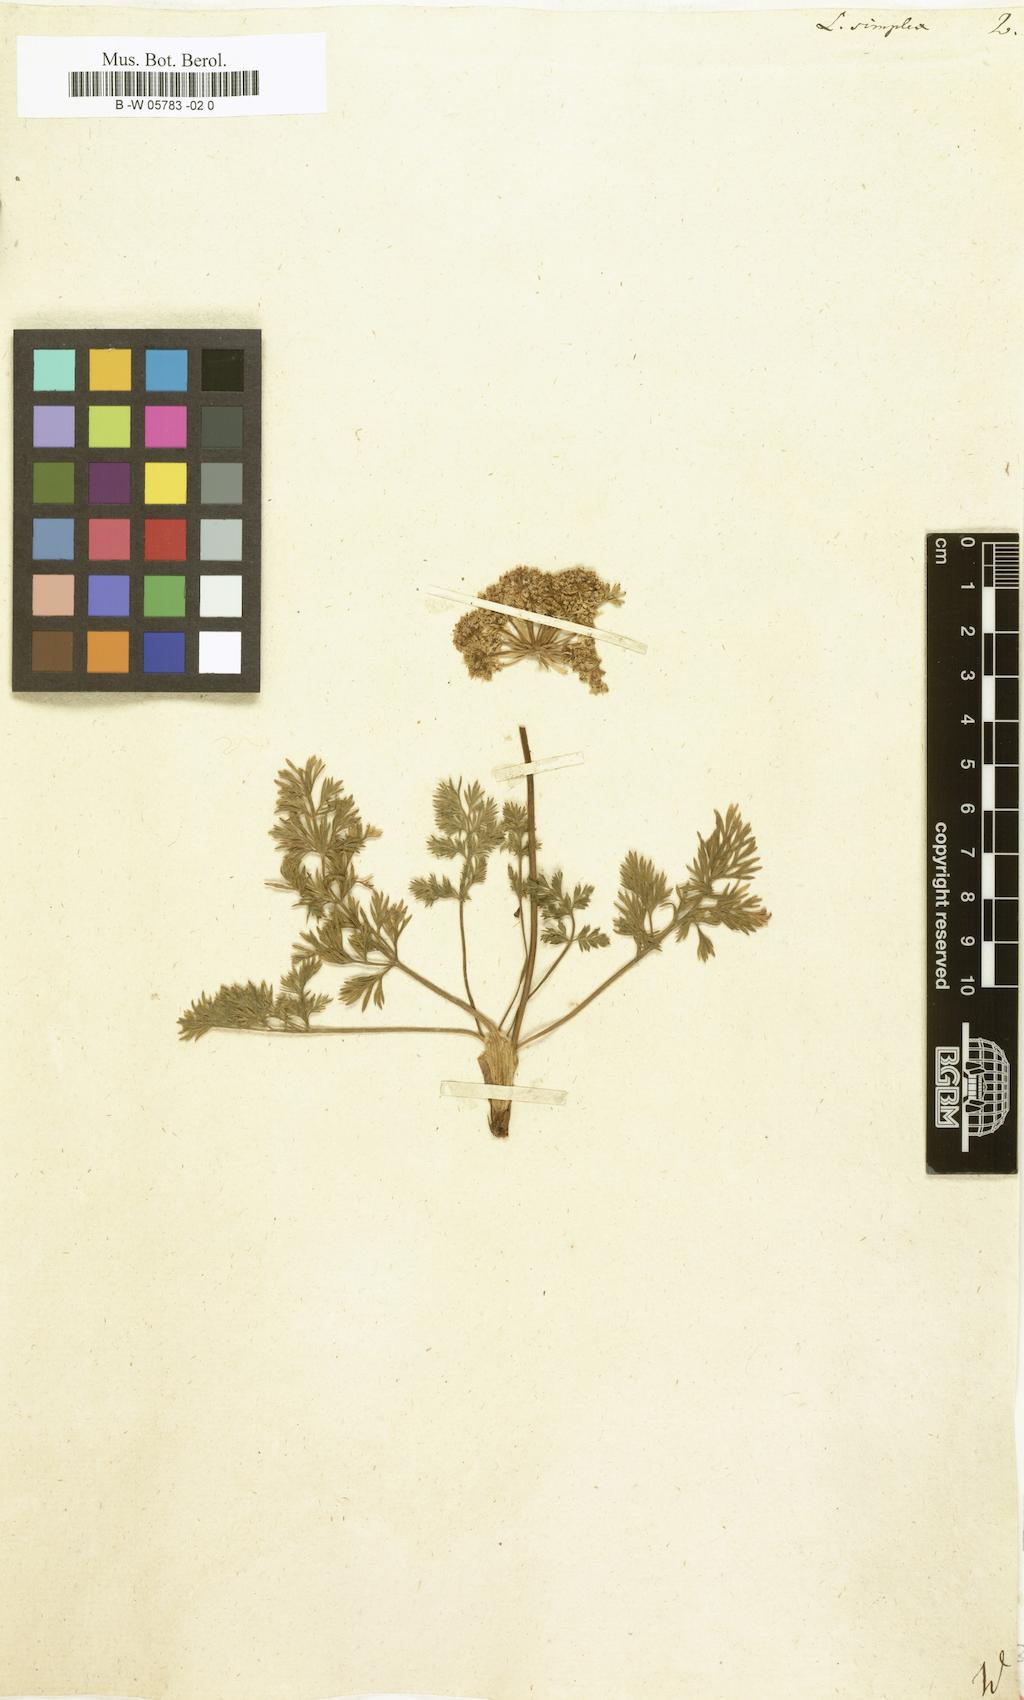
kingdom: Plantae
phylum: Tracheophyta
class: Magnoliopsida
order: Apiales
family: Apiaceae
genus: Pachypleurum
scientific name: Pachypleurum mutellinoides
